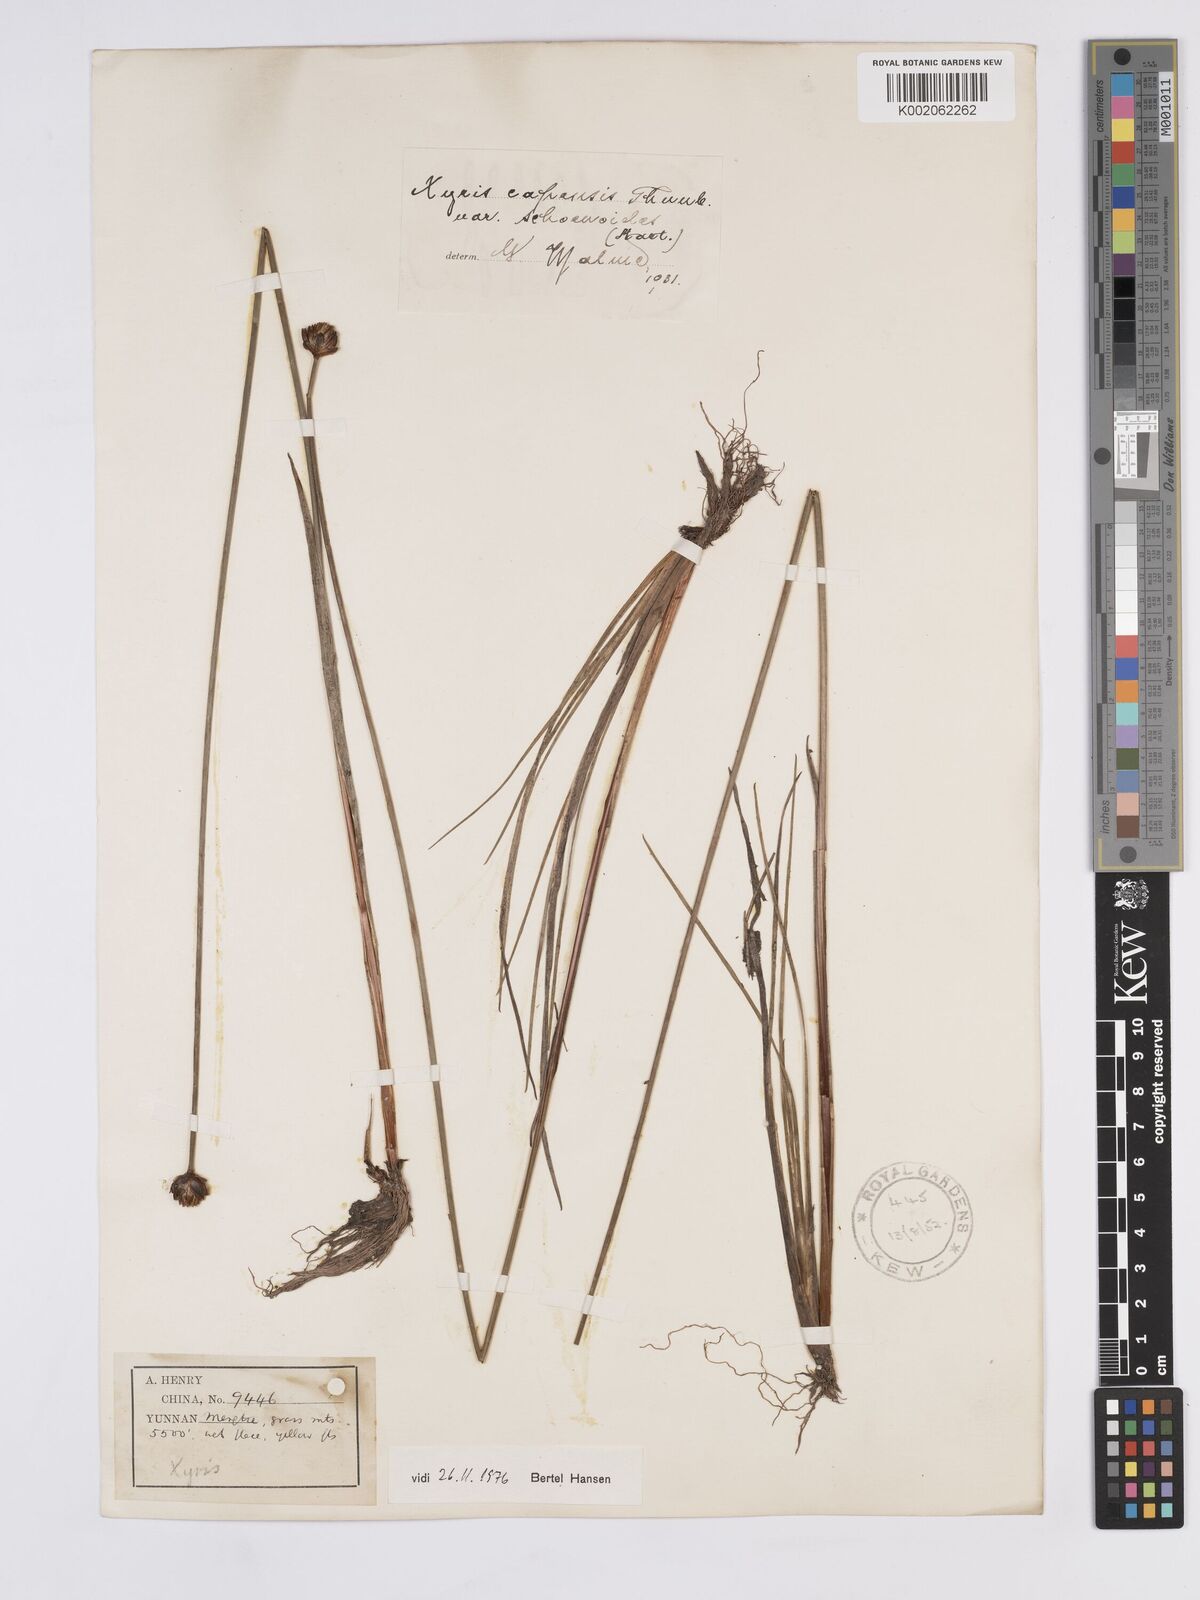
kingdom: Plantae
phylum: Tracheophyta
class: Liliopsida
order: Poales
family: Xyridaceae
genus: Xyris
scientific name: Xyris capensis
